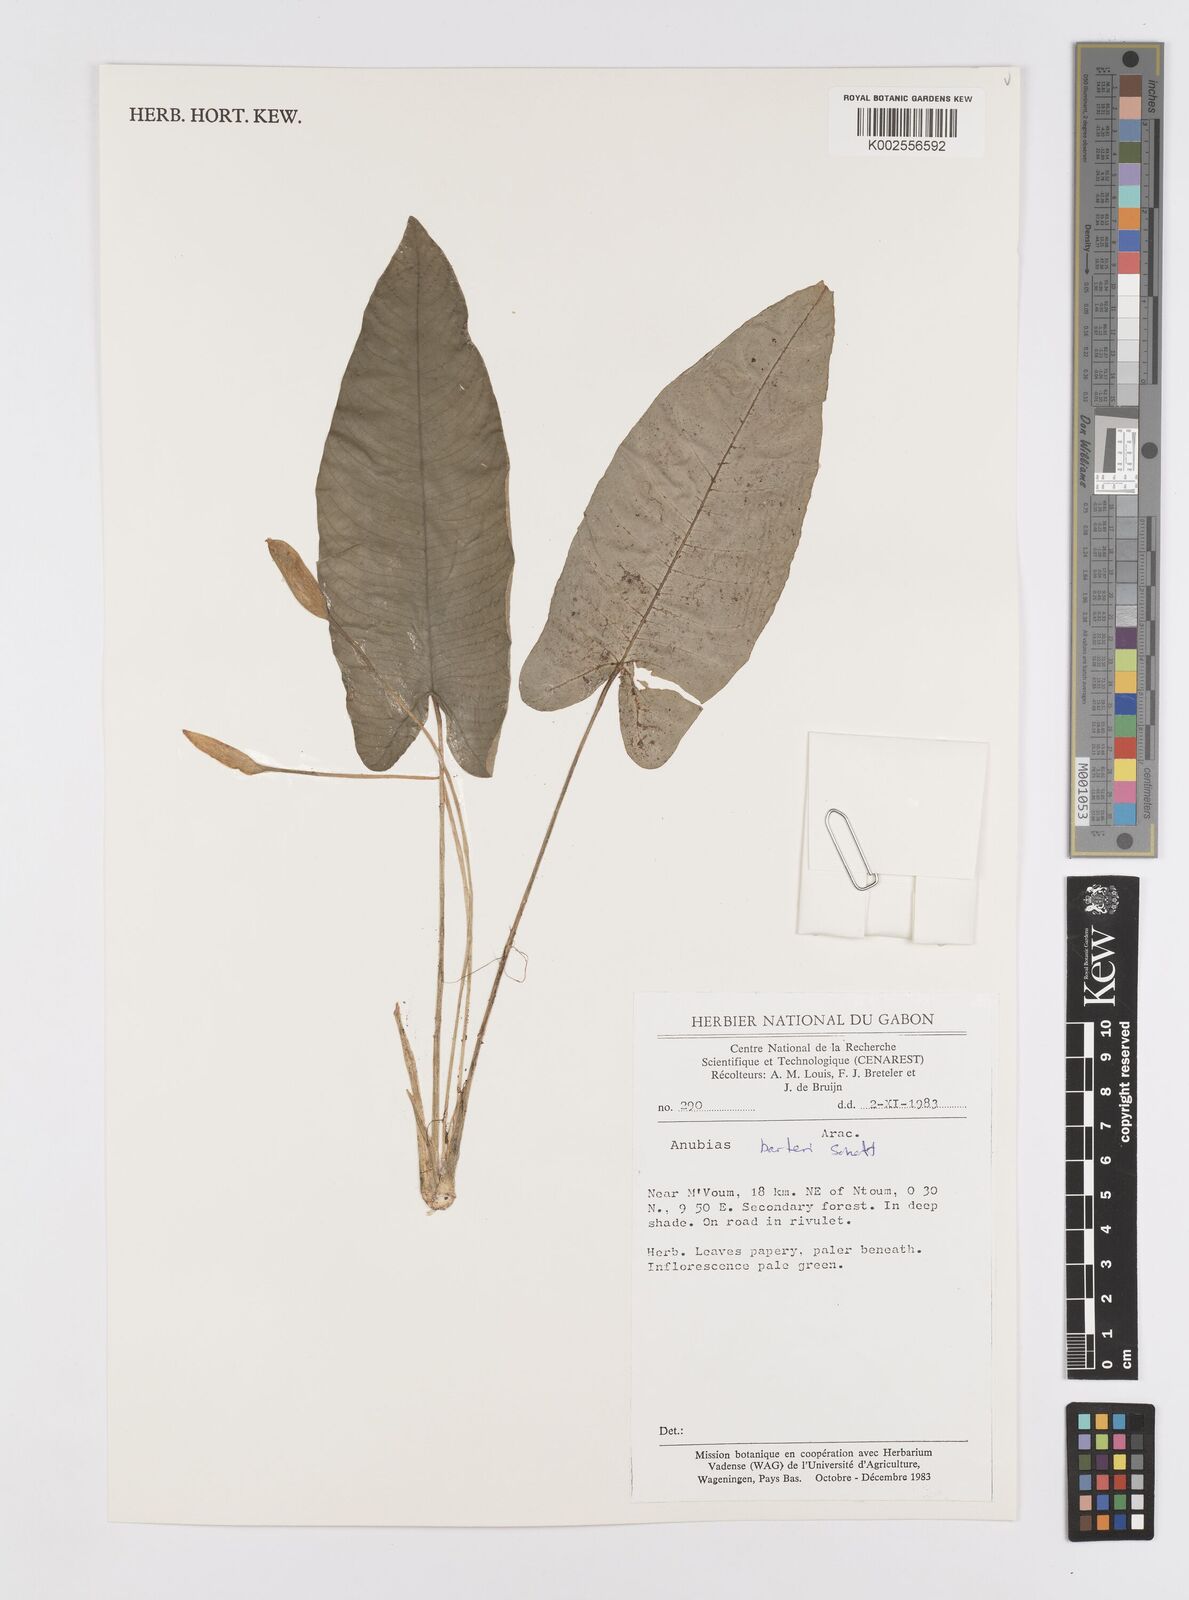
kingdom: Plantae
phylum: Tracheophyta
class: Liliopsida
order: Alismatales
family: Araceae
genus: Anubias
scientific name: Anubias barteri
